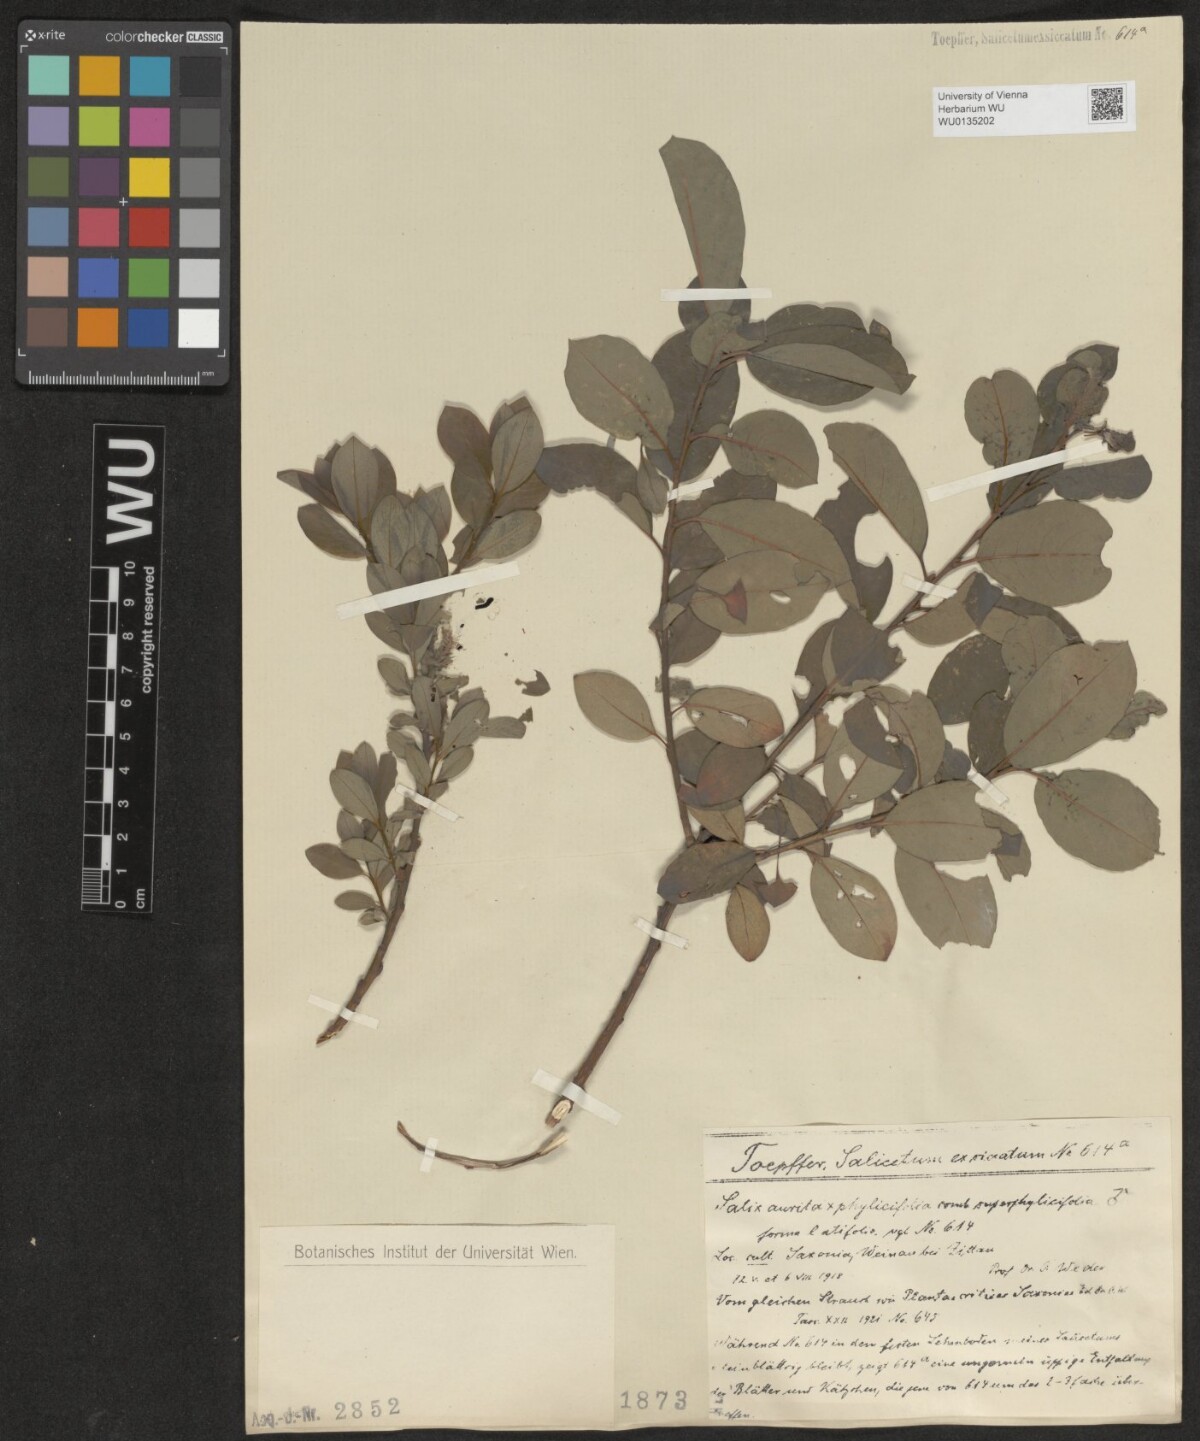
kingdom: Plantae
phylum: Tracheophyta
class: Magnoliopsida
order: Malpighiales
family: Salicaceae
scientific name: Salicaceae
